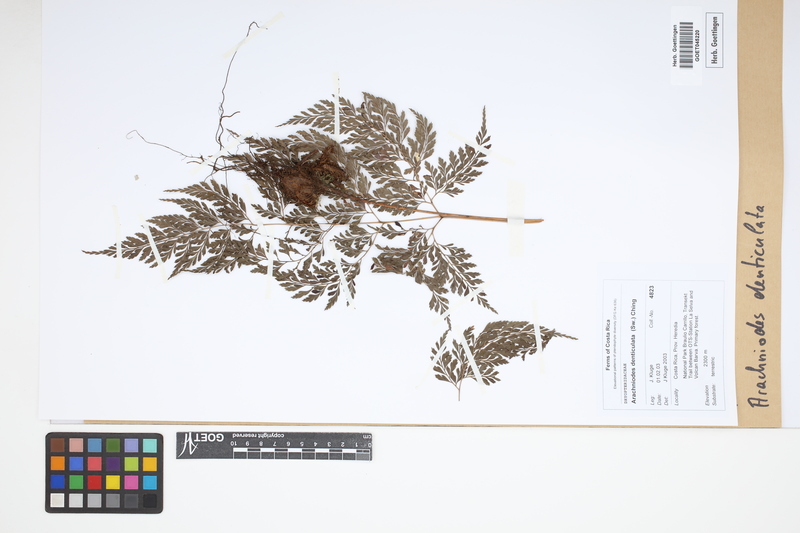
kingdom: Plantae
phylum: Tracheophyta
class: Polypodiopsida
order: Polypodiales
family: Dryopteridaceae
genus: Arachniodes
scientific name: Arachniodes denticulata
